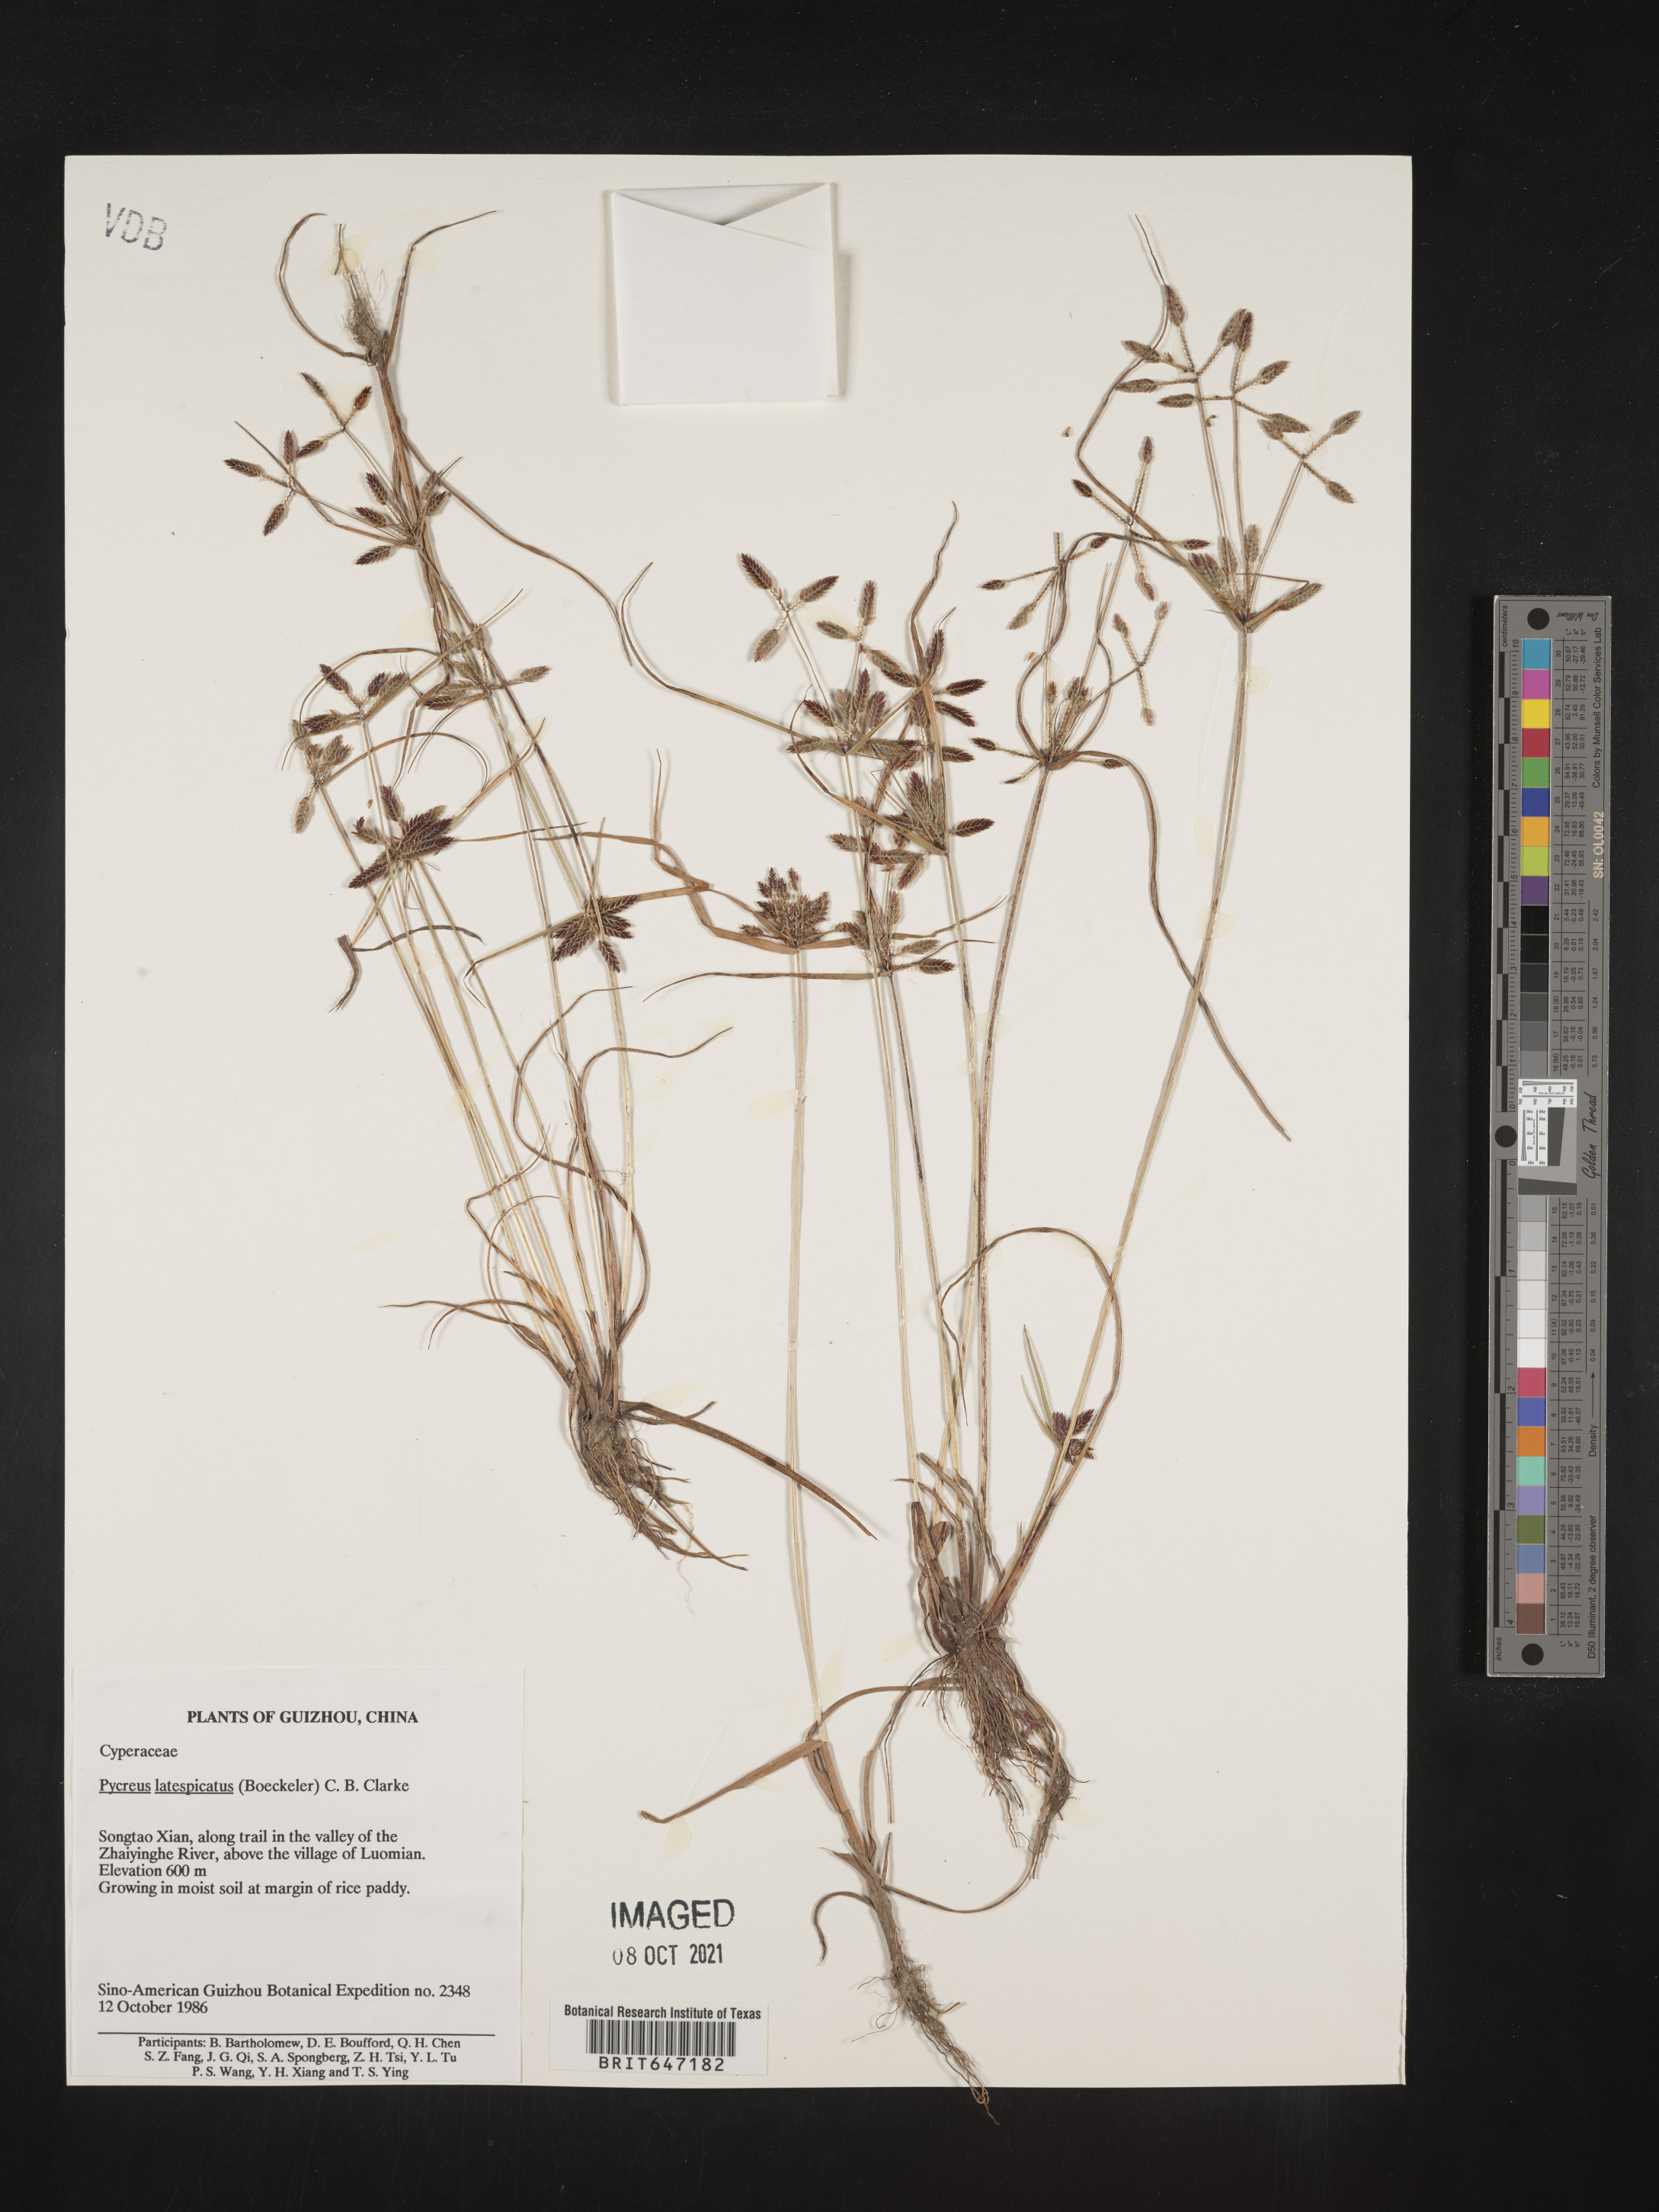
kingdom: Plantae
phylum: Tracheophyta
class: Liliopsida
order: Poales
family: Cyperaceae
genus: Cyperus
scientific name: Cyperus diaphanus
